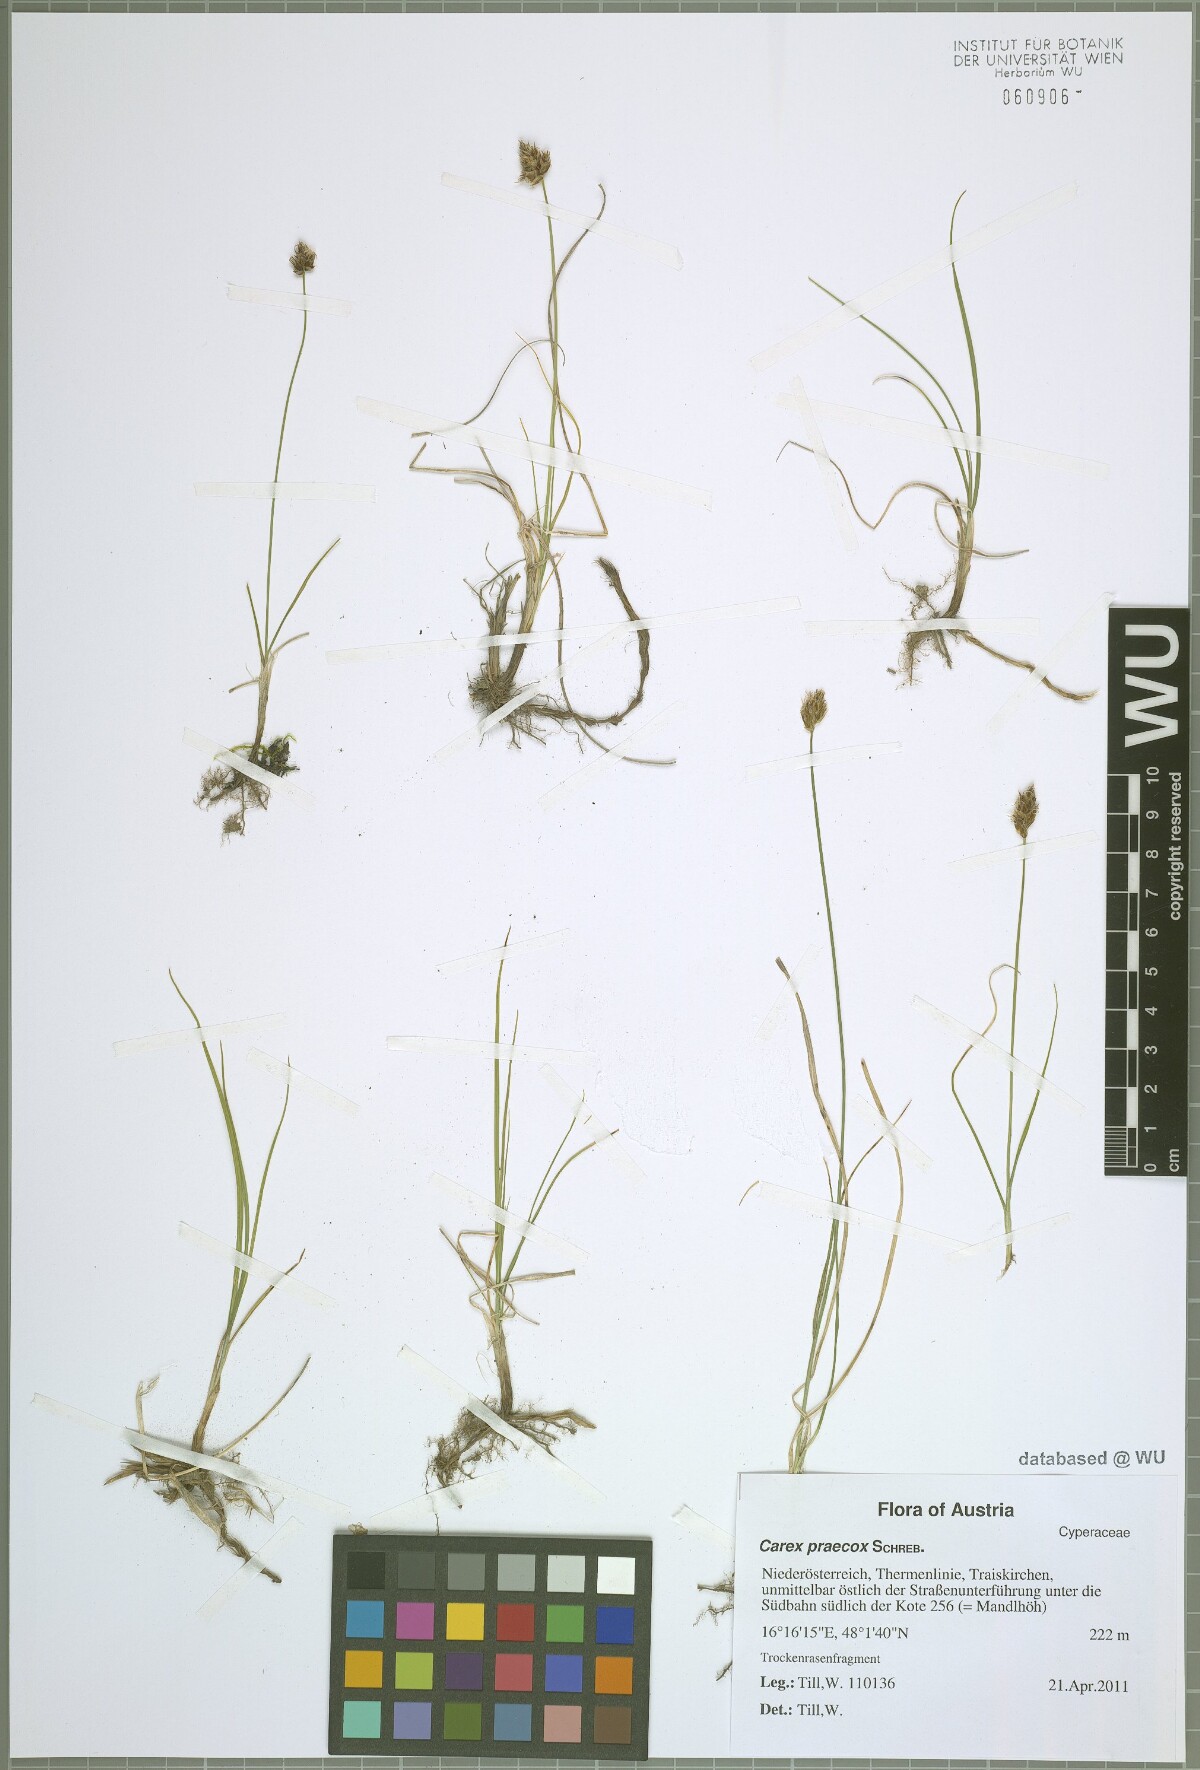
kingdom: Plantae
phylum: Tracheophyta
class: Liliopsida
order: Poales
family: Cyperaceae
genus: Carex
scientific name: Carex praecox
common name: Early sedge
